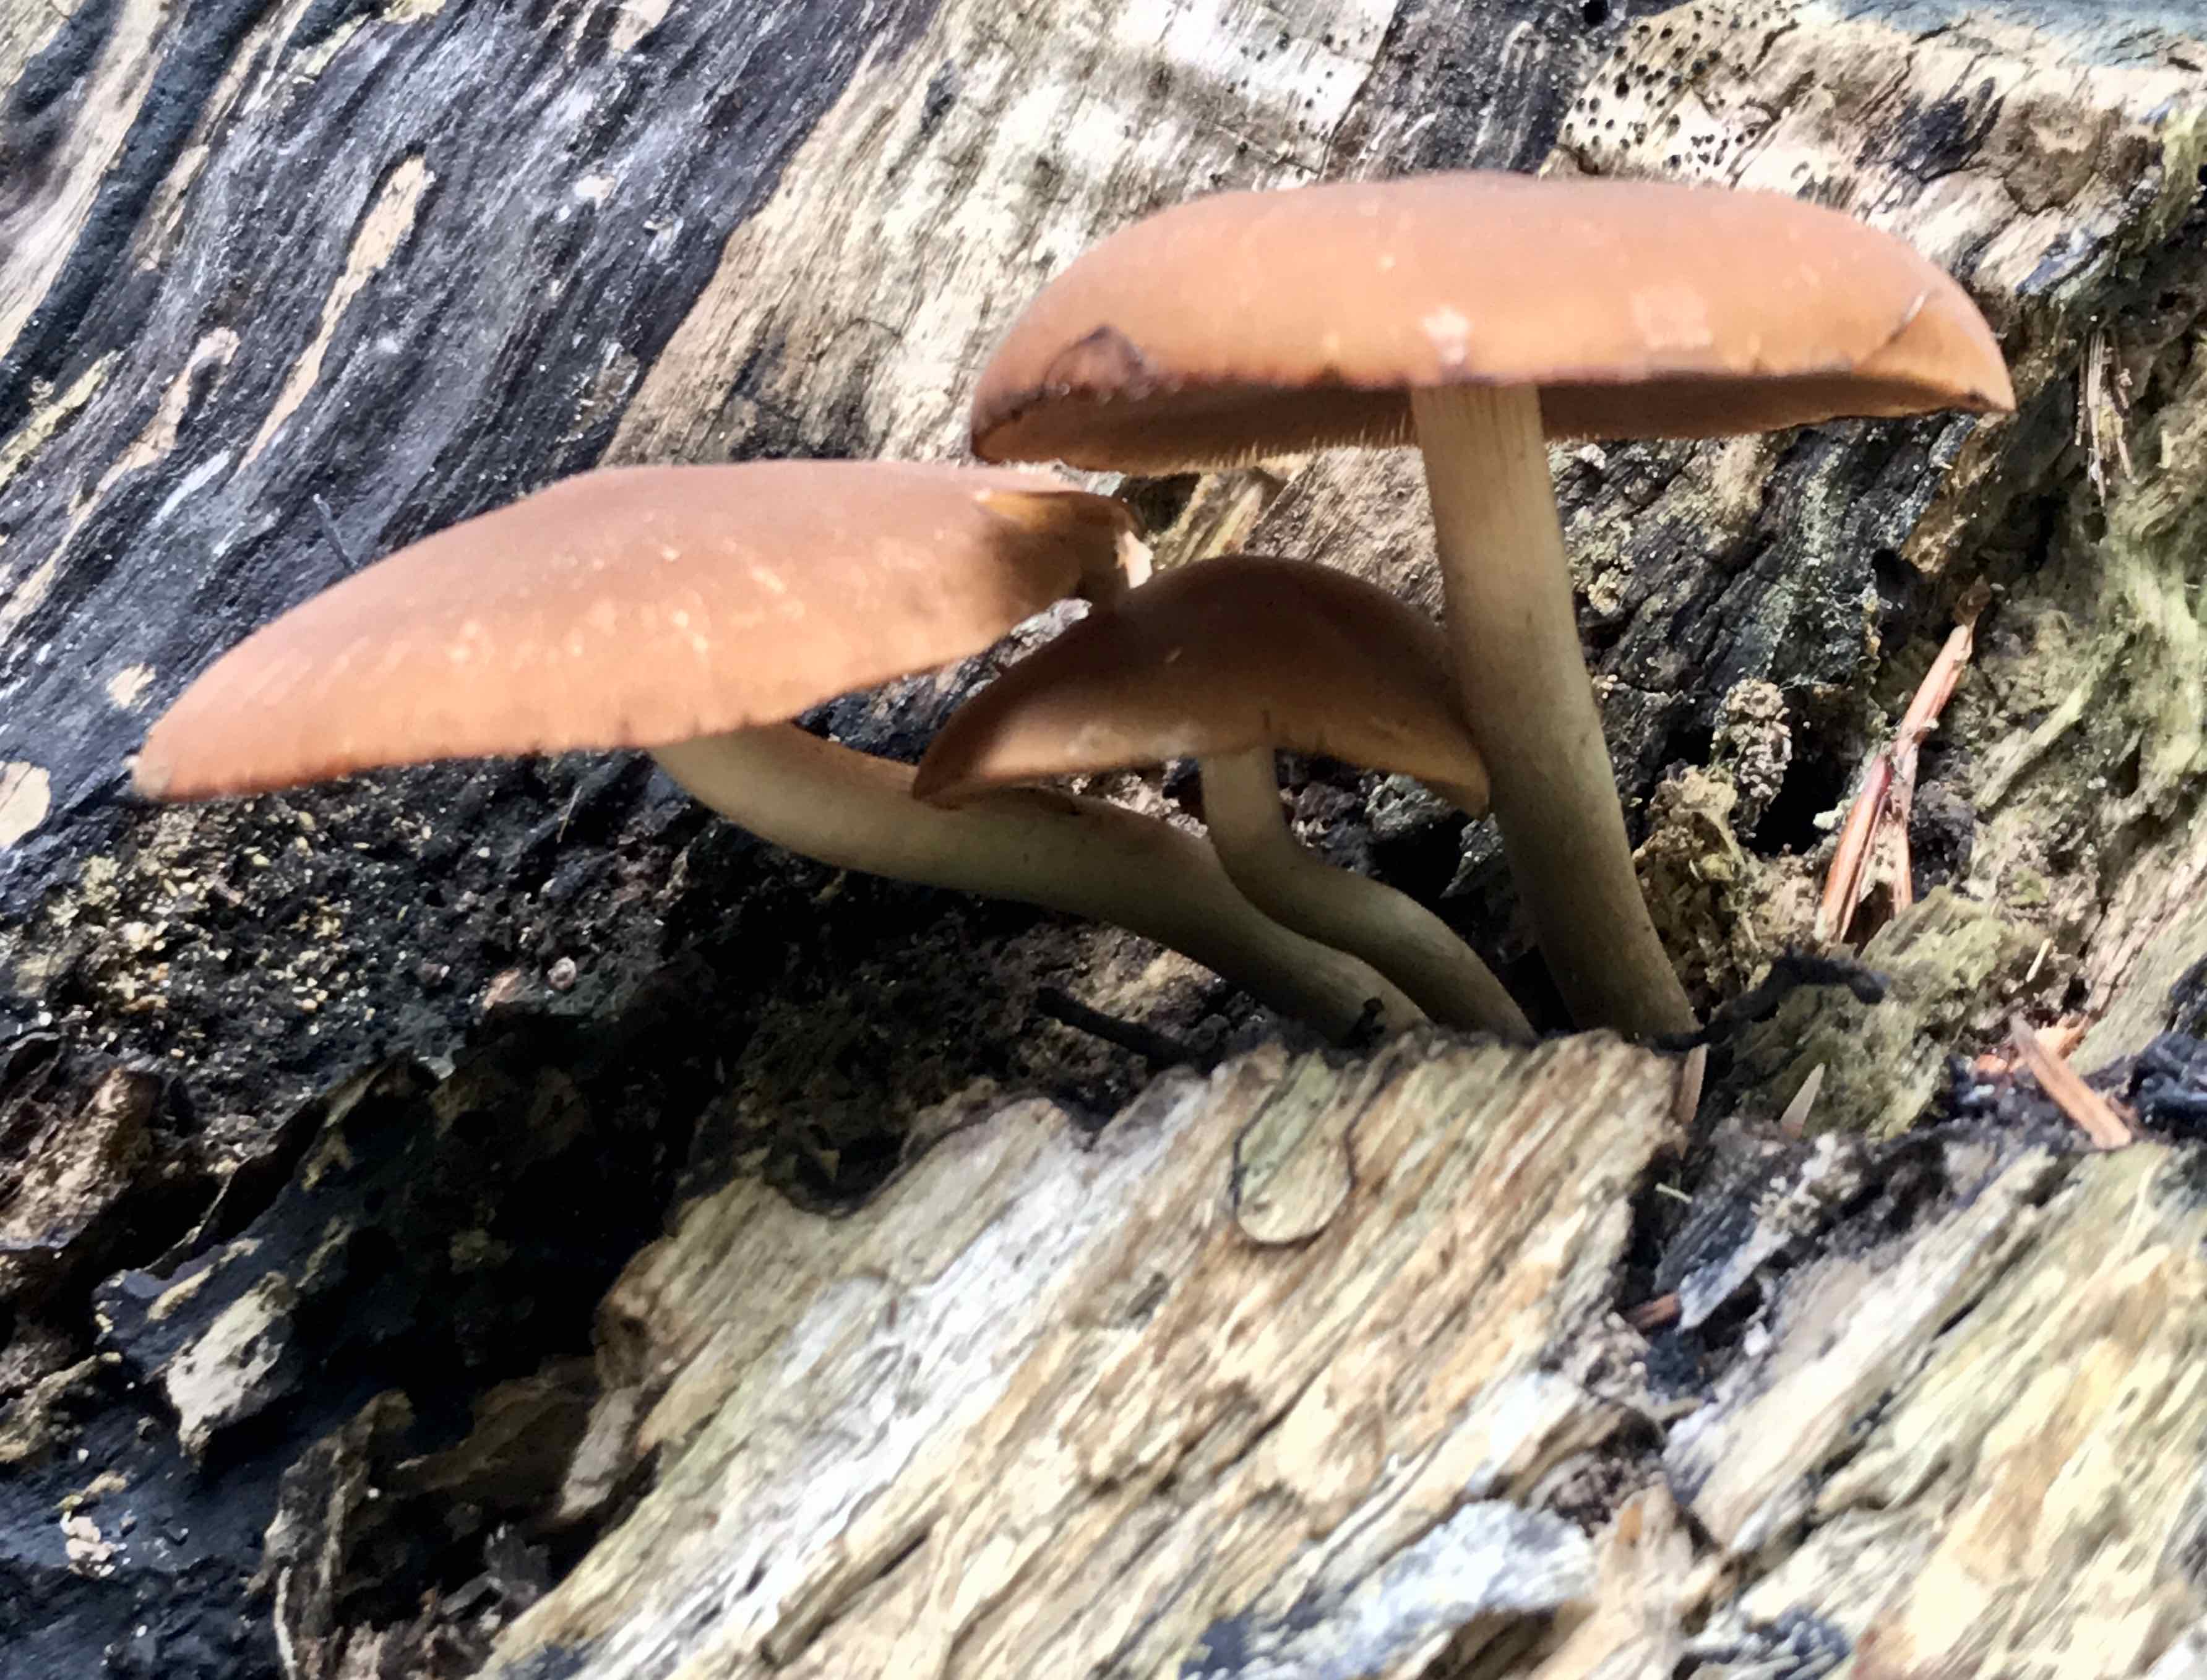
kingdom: Fungi
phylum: Basidiomycota
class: Agaricomycetes
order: Agaricales
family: Psathyrellaceae
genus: Psathyrella
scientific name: Psathyrella piluliformis
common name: lysstokket mørkhat
